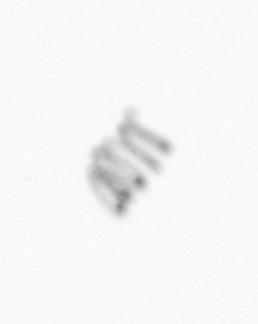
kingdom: Chromista
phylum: Ochrophyta
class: Bacillariophyceae
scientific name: Bacillariophyceae
